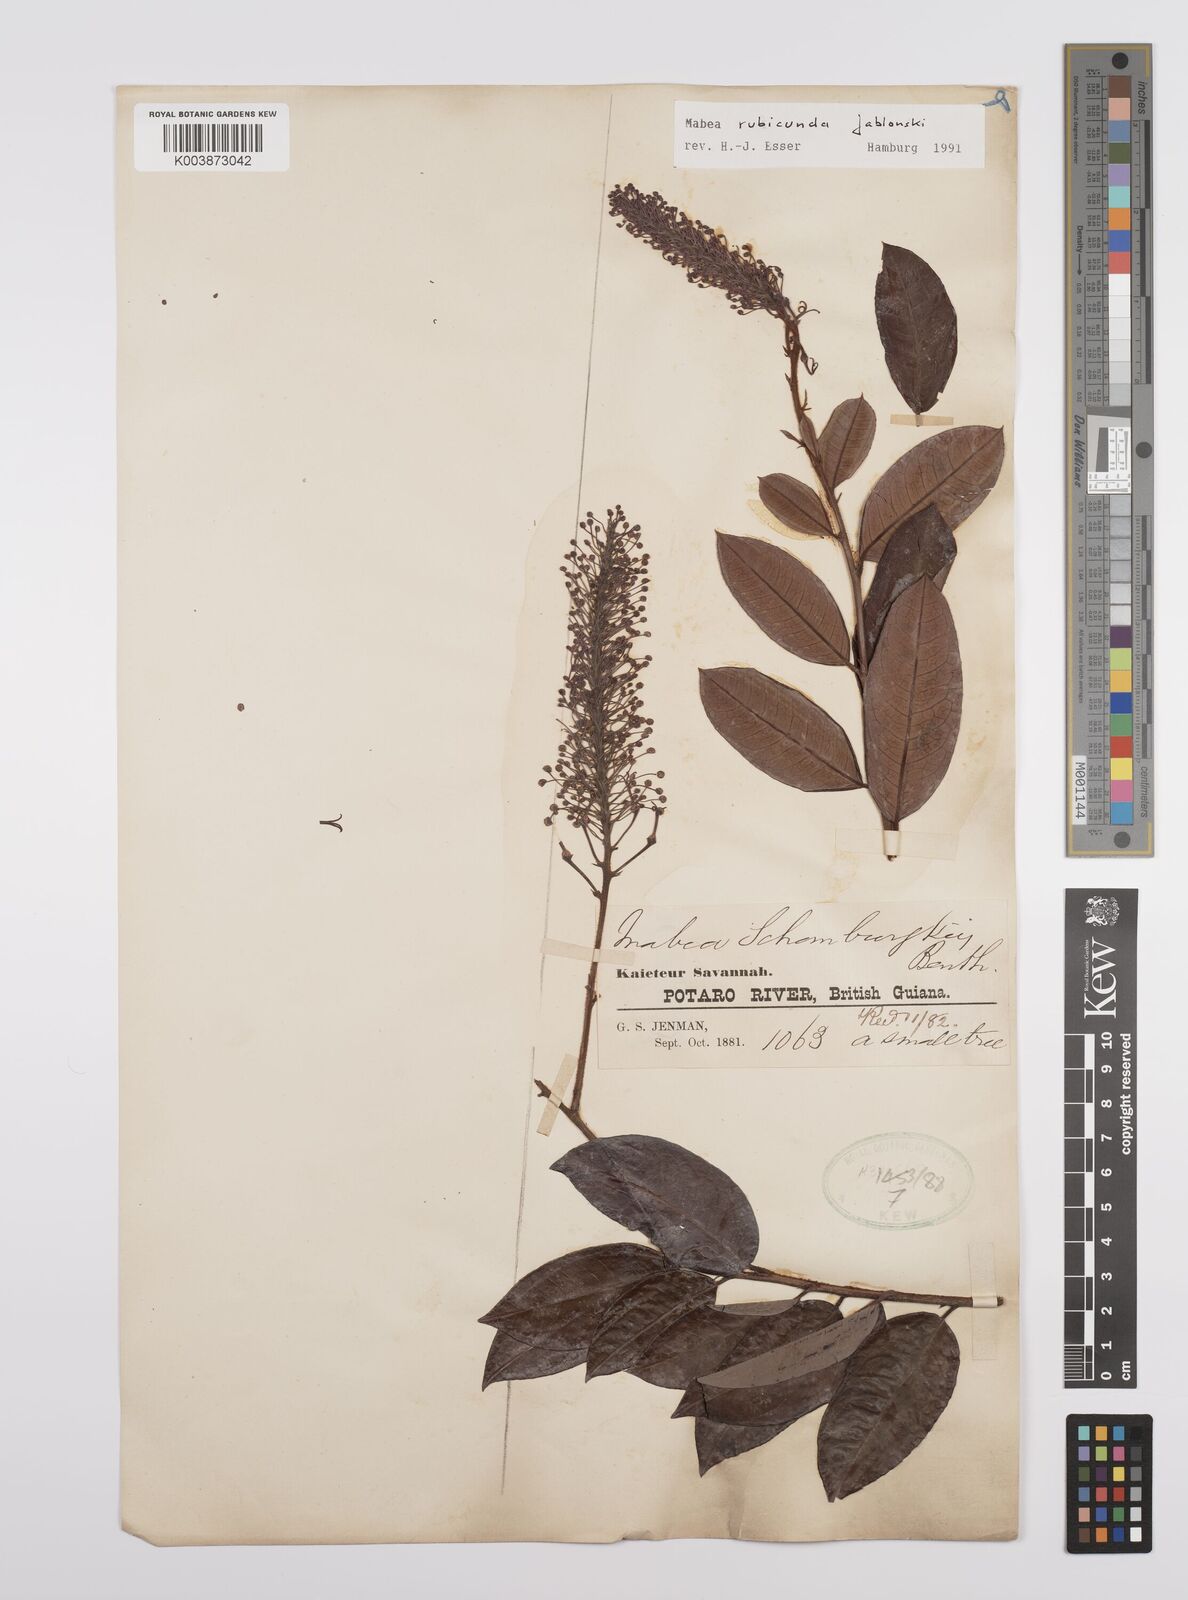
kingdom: Plantae
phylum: Tracheophyta
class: Magnoliopsida
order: Malpighiales
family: Euphorbiaceae
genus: Mabea
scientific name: Mabea rubicunda
